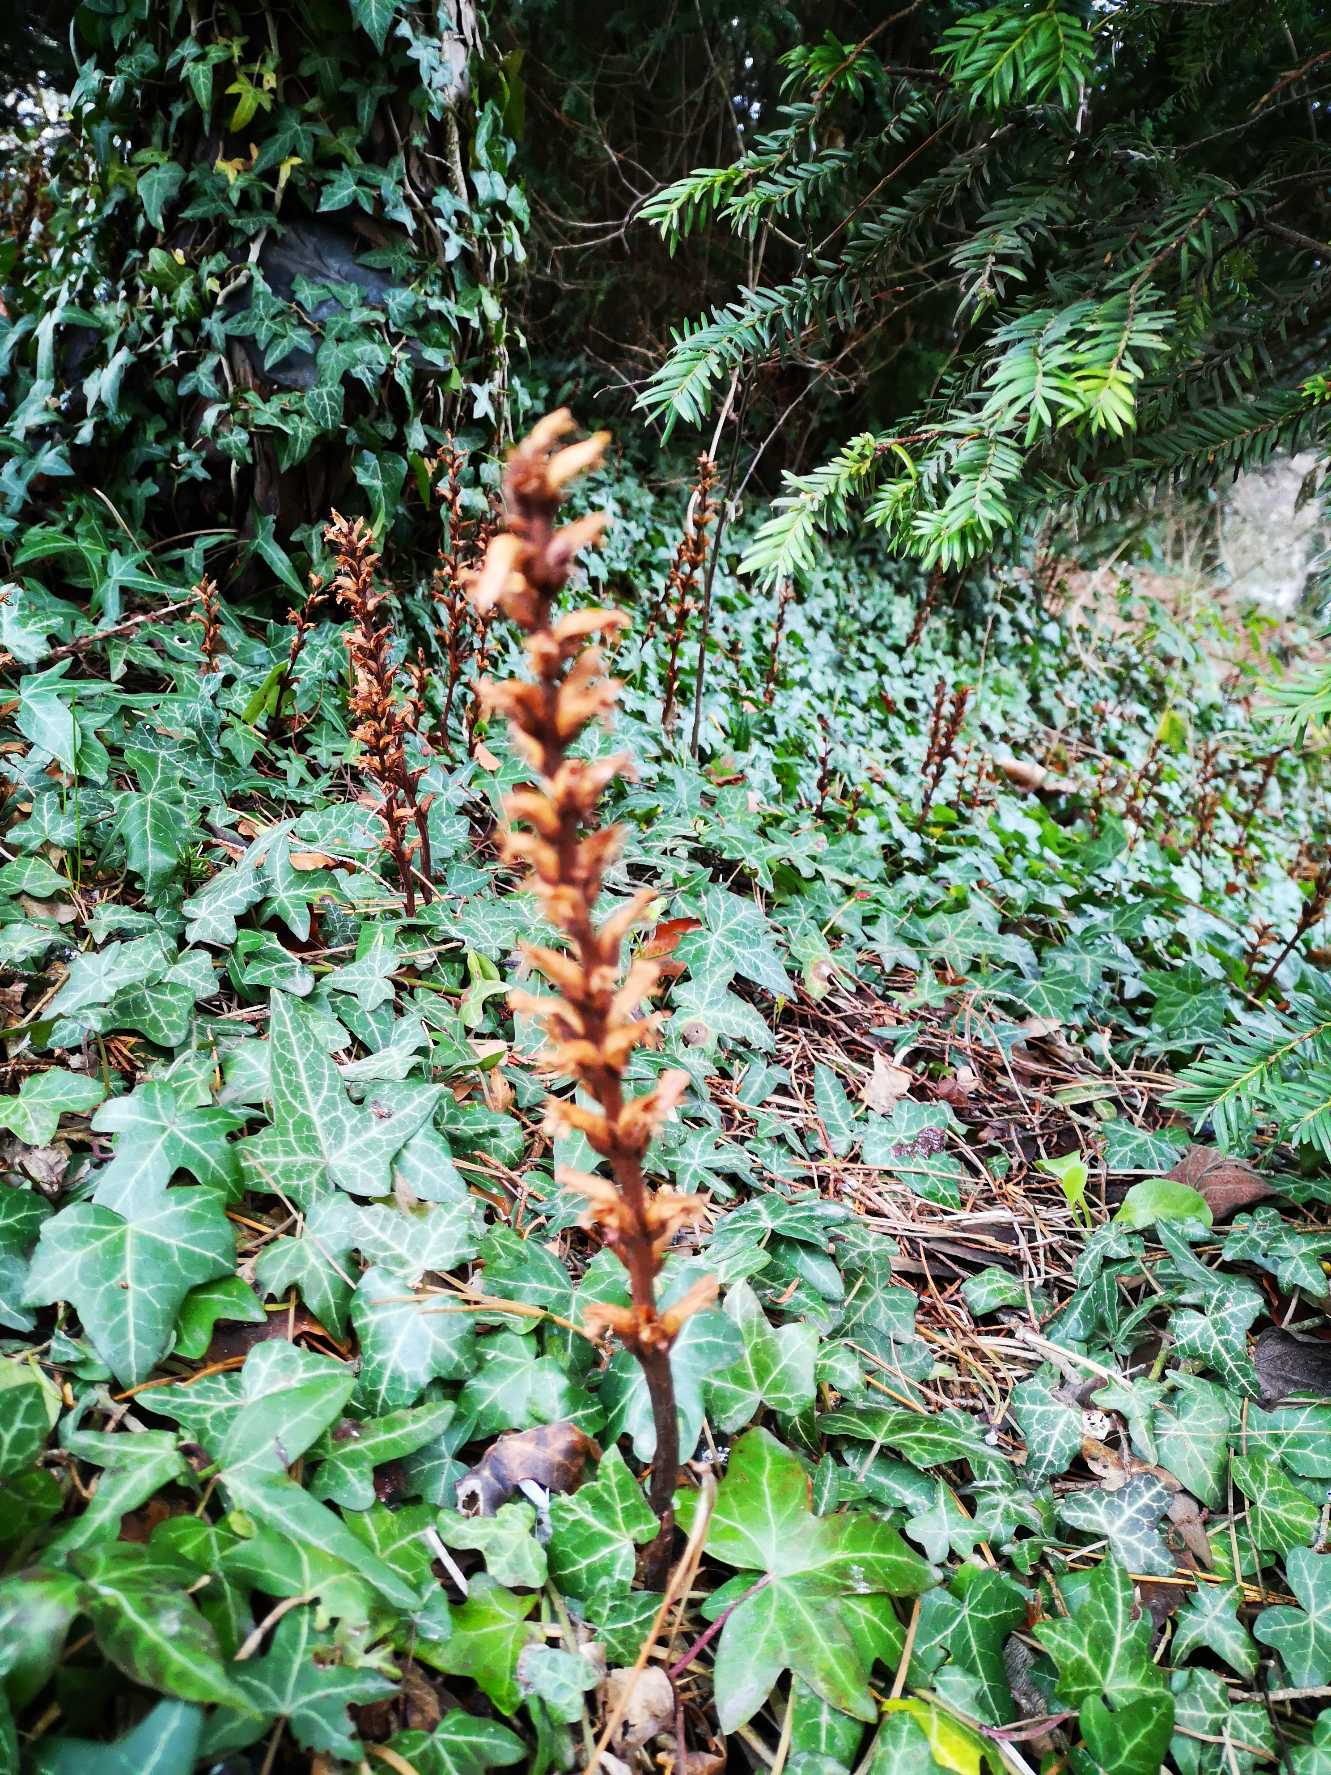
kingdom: Plantae
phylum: Tracheophyta
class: Magnoliopsida
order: Lamiales
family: Orobanchaceae
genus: Orobanche
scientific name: Orobanche hederae
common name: Vedbend-gyvelkvæler
